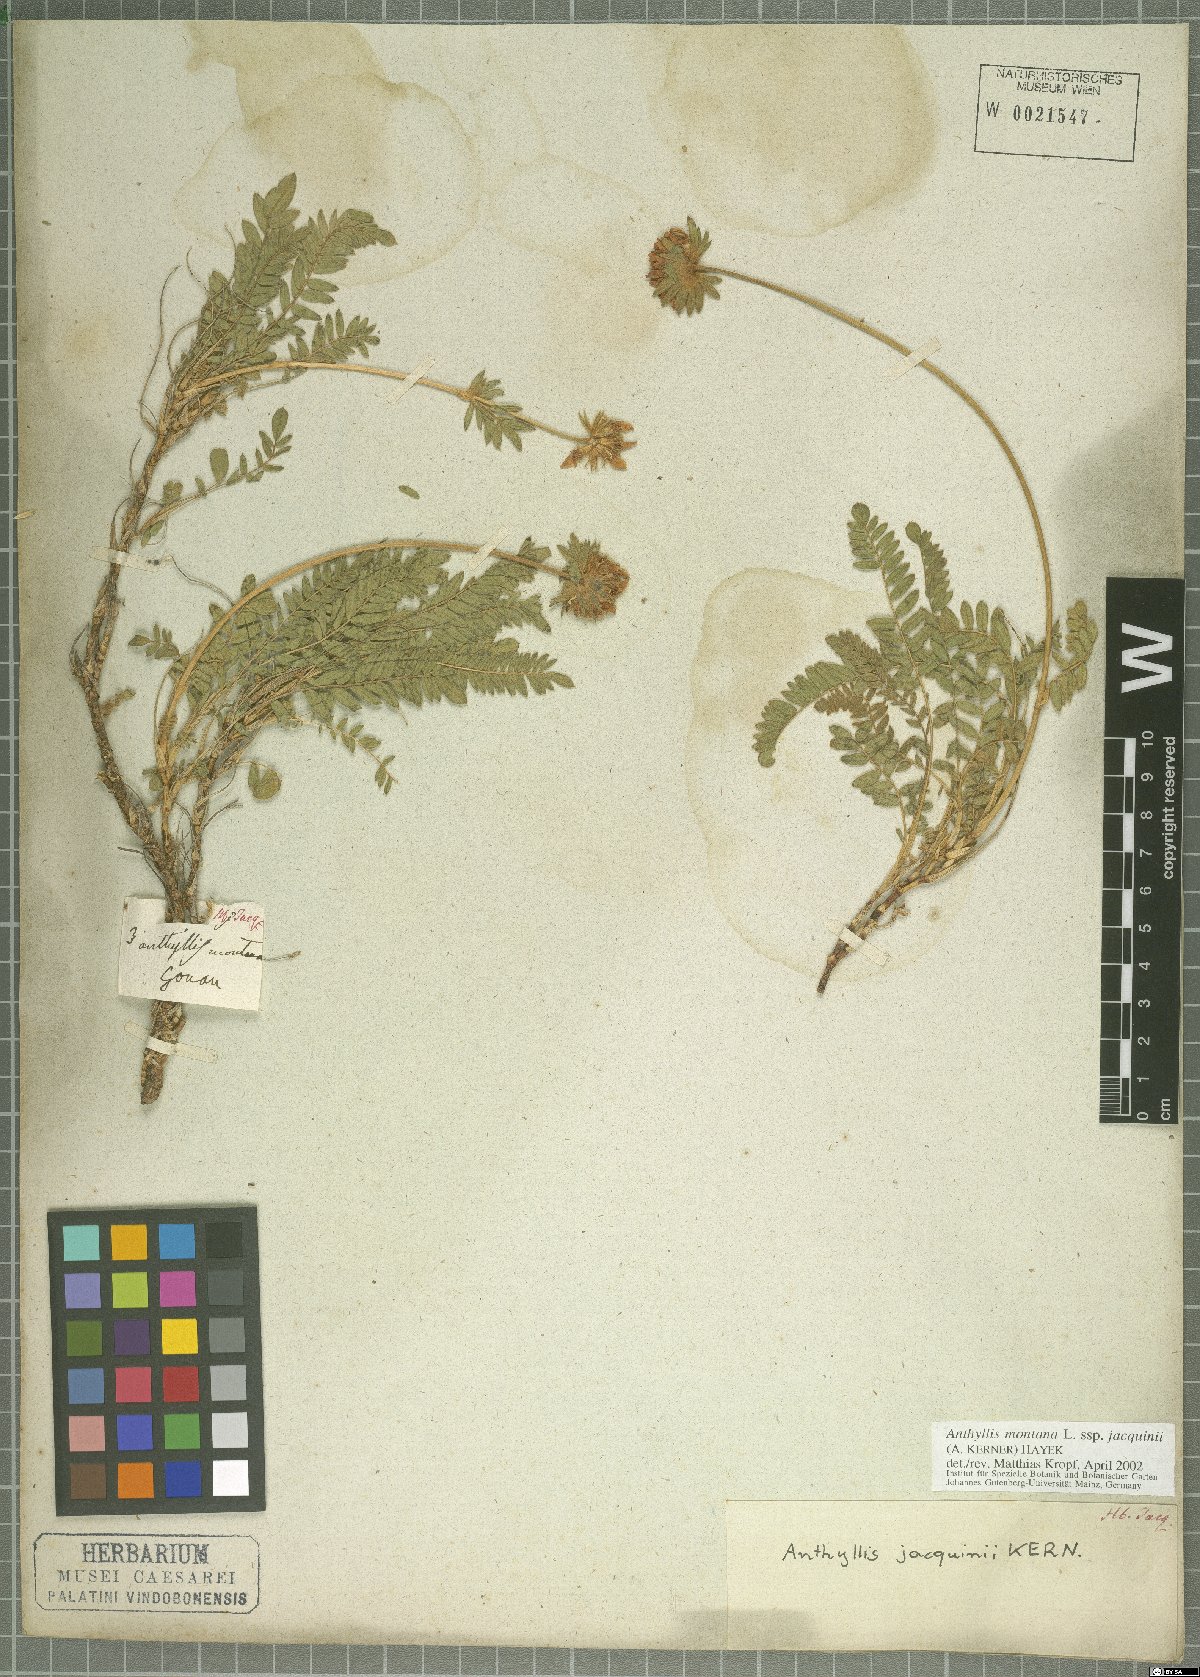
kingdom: Plantae
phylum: Tracheophyta
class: Magnoliopsida
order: Fabales
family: Fabaceae
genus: Anthyllis
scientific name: Anthyllis montana
